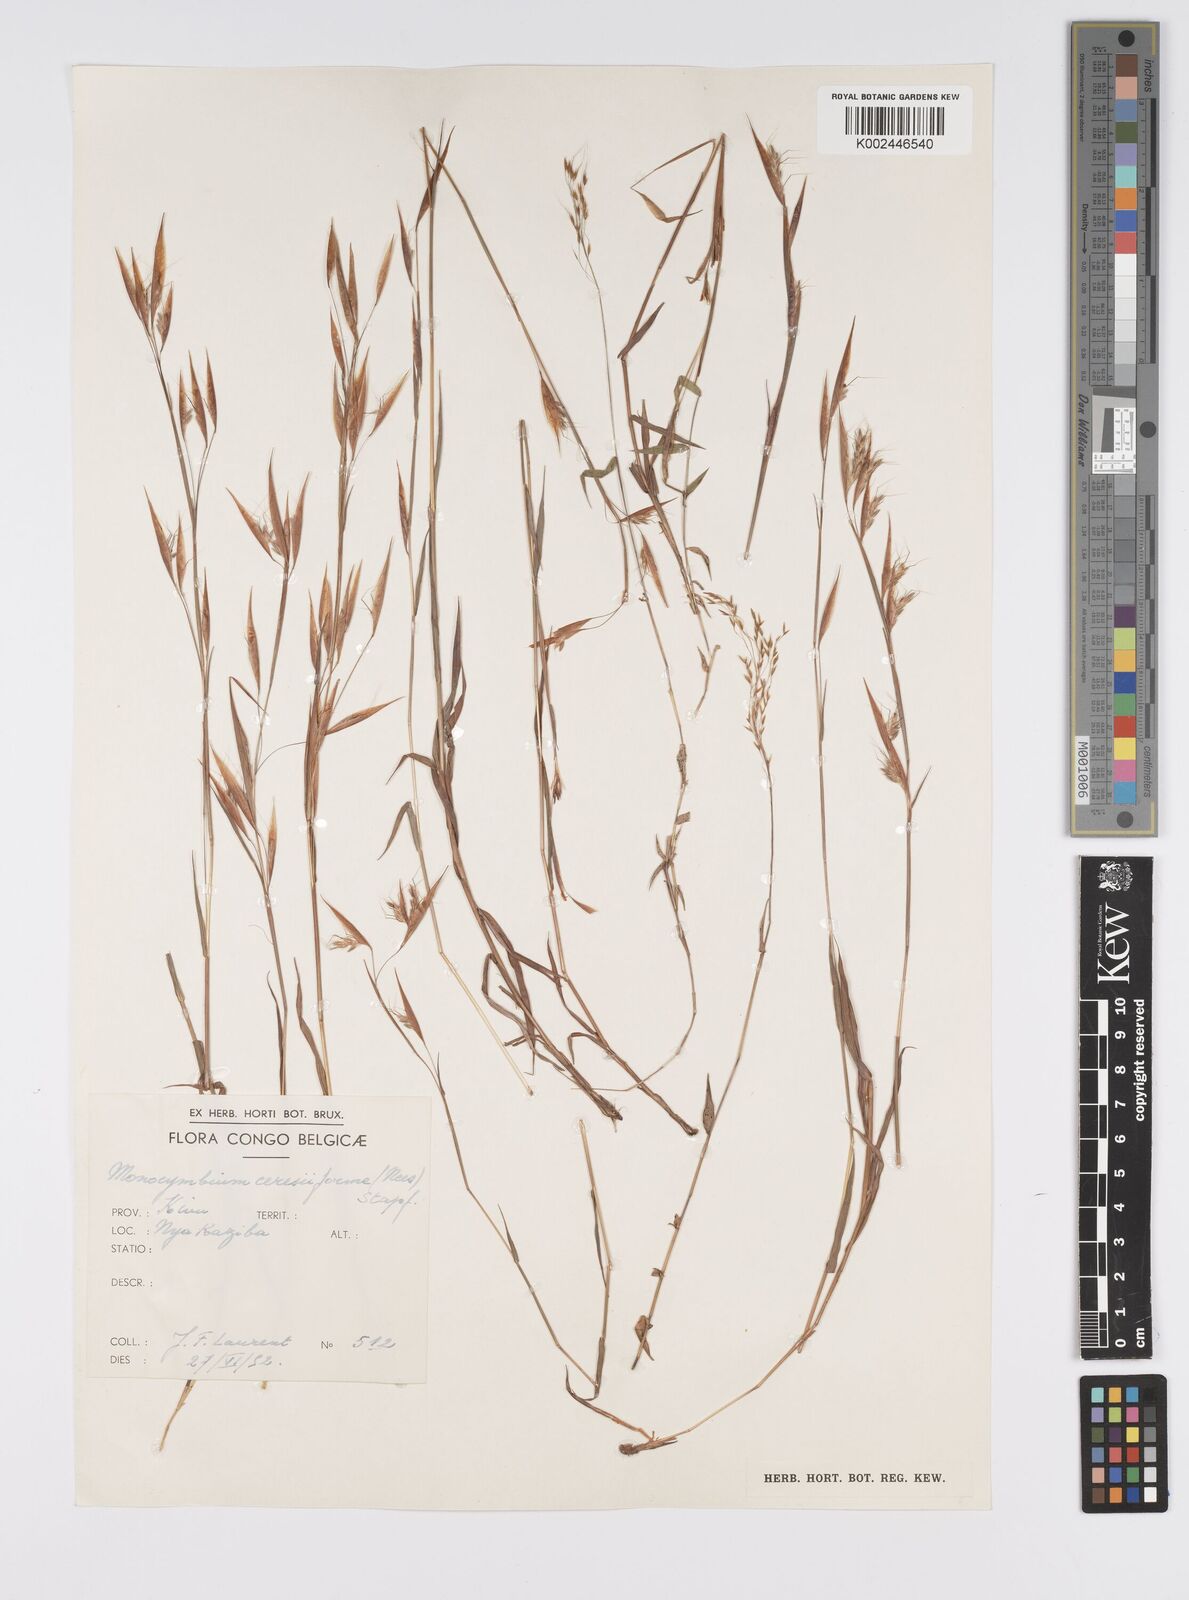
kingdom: Plantae
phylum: Tracheophyta
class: Liliopsida
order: Poales
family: Poaceae
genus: Monocymbium
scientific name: Monocymbium ceresiiforme
